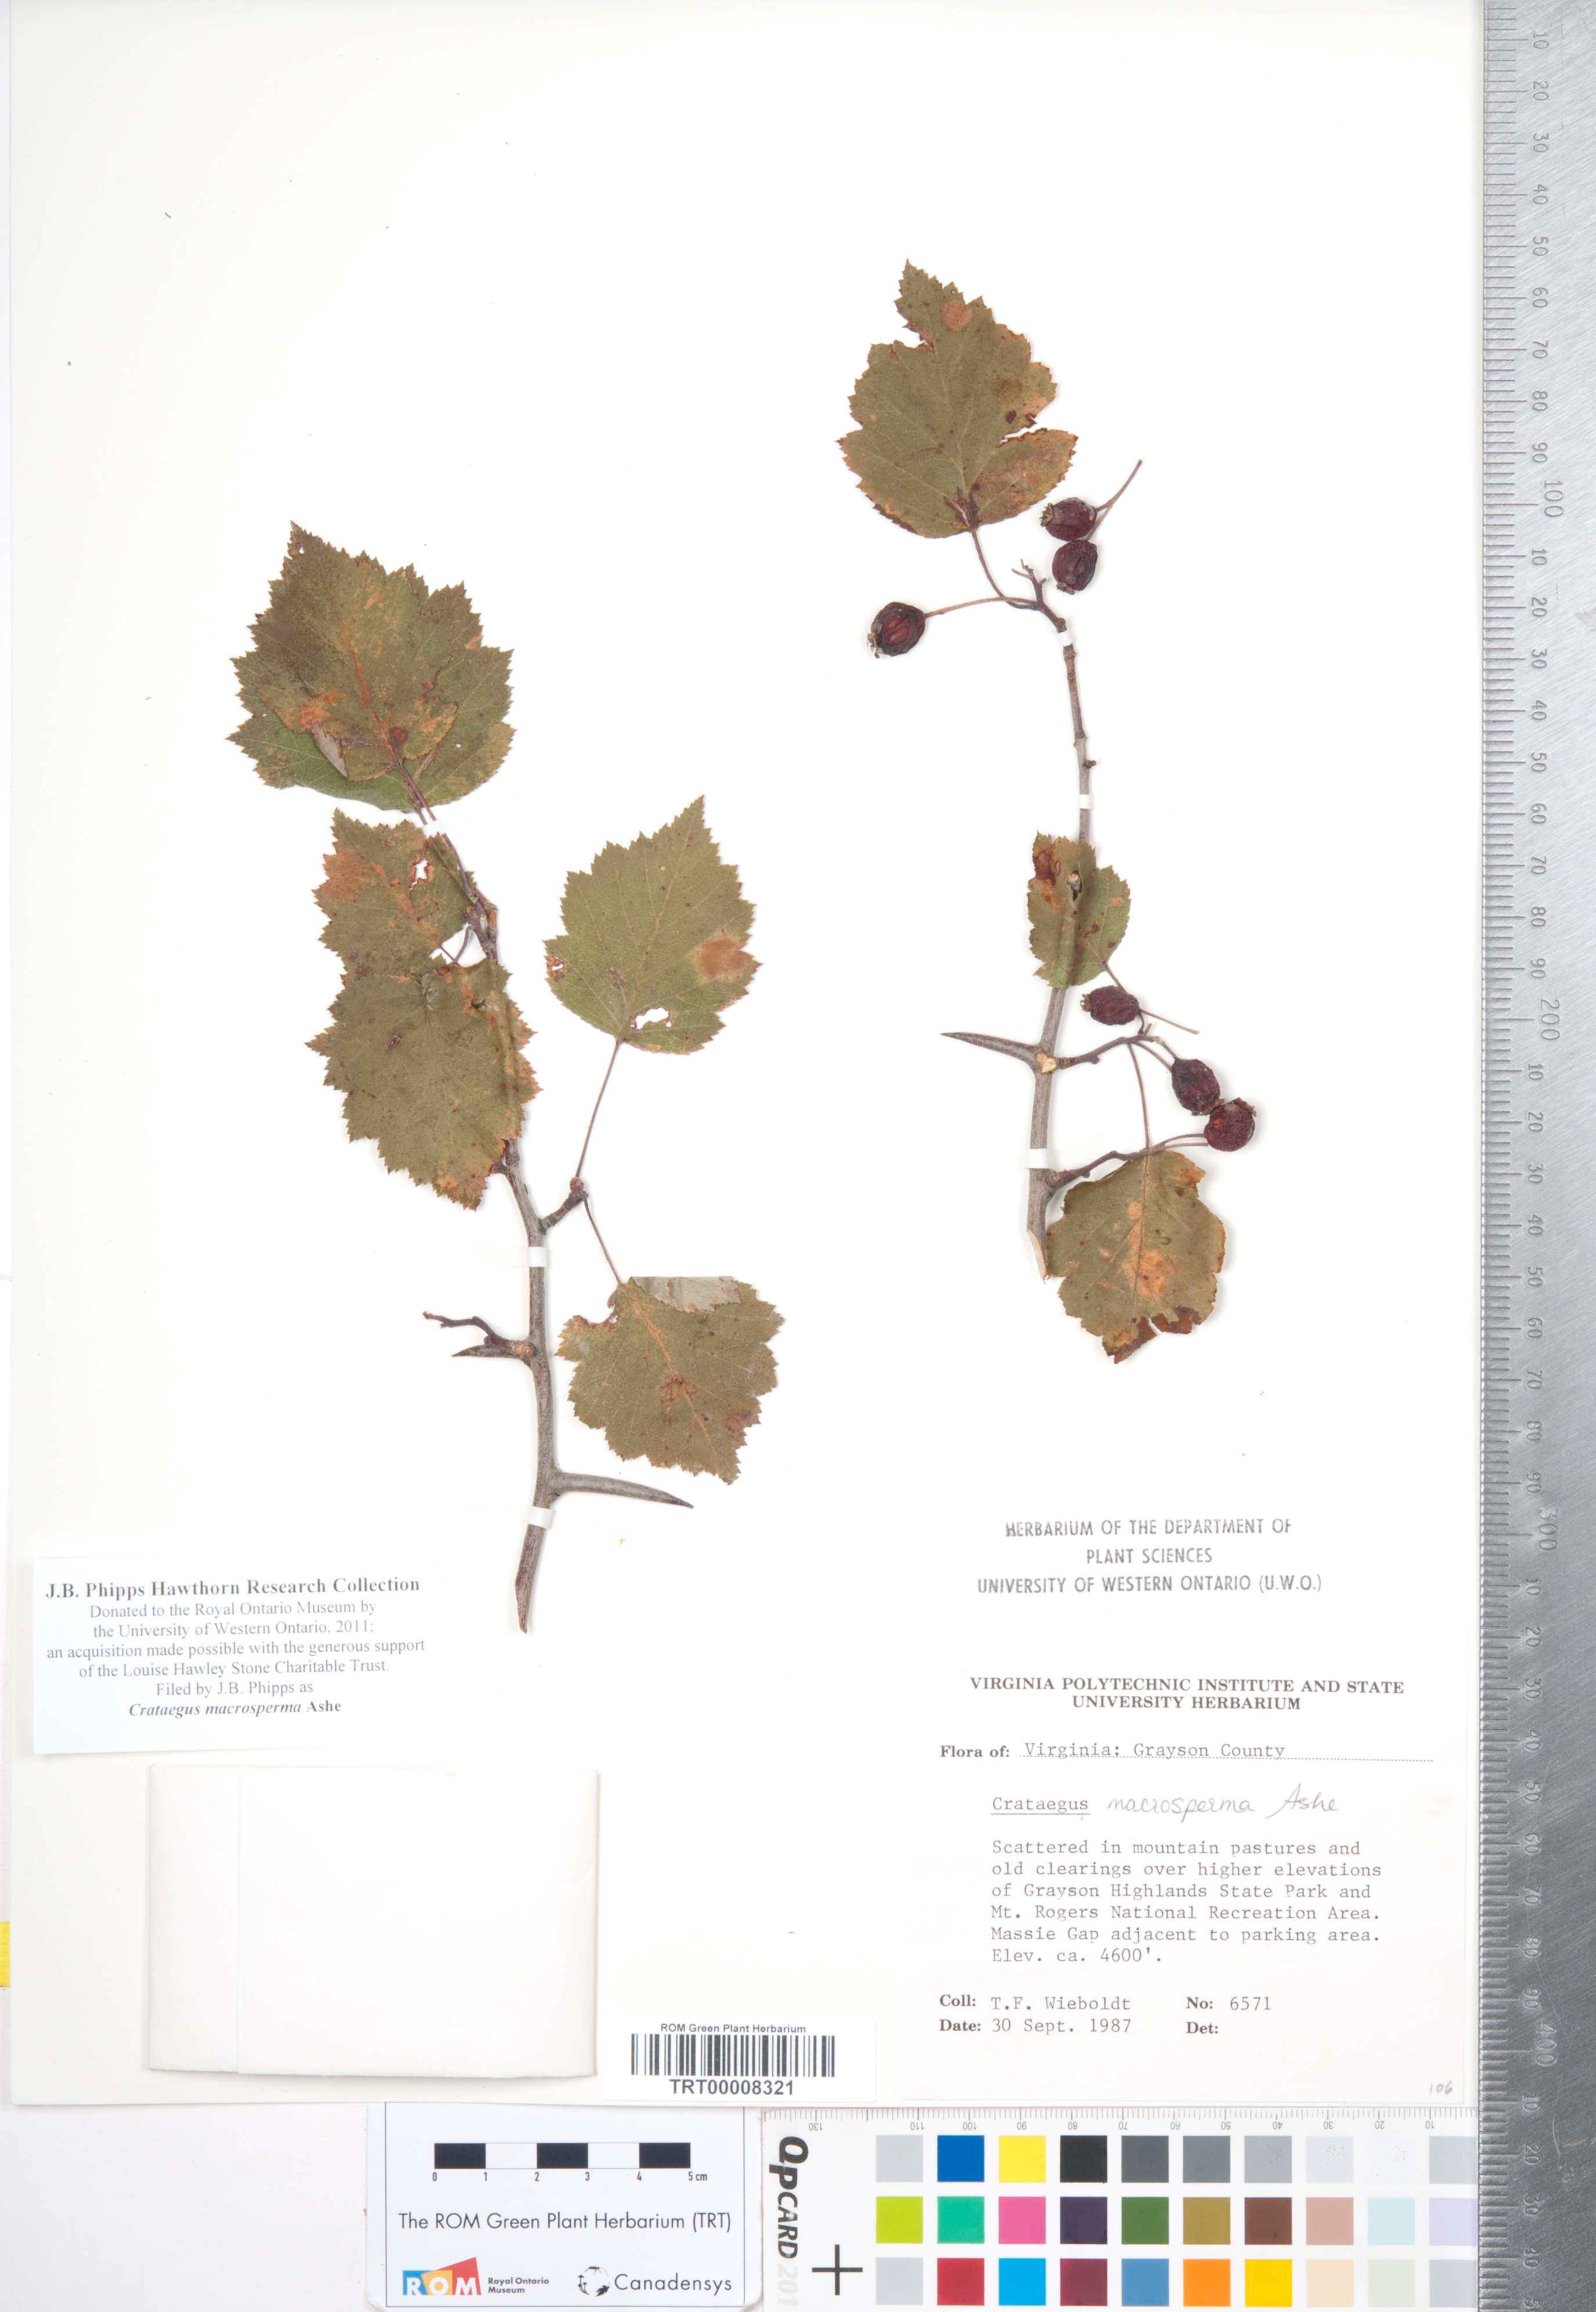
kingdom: Plantae
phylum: Tracheophyta
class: Magnoliopsida
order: Rosales
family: Rosaceae
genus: Crataegus
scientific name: Crataegus macrosperma
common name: Variable hawthorn
